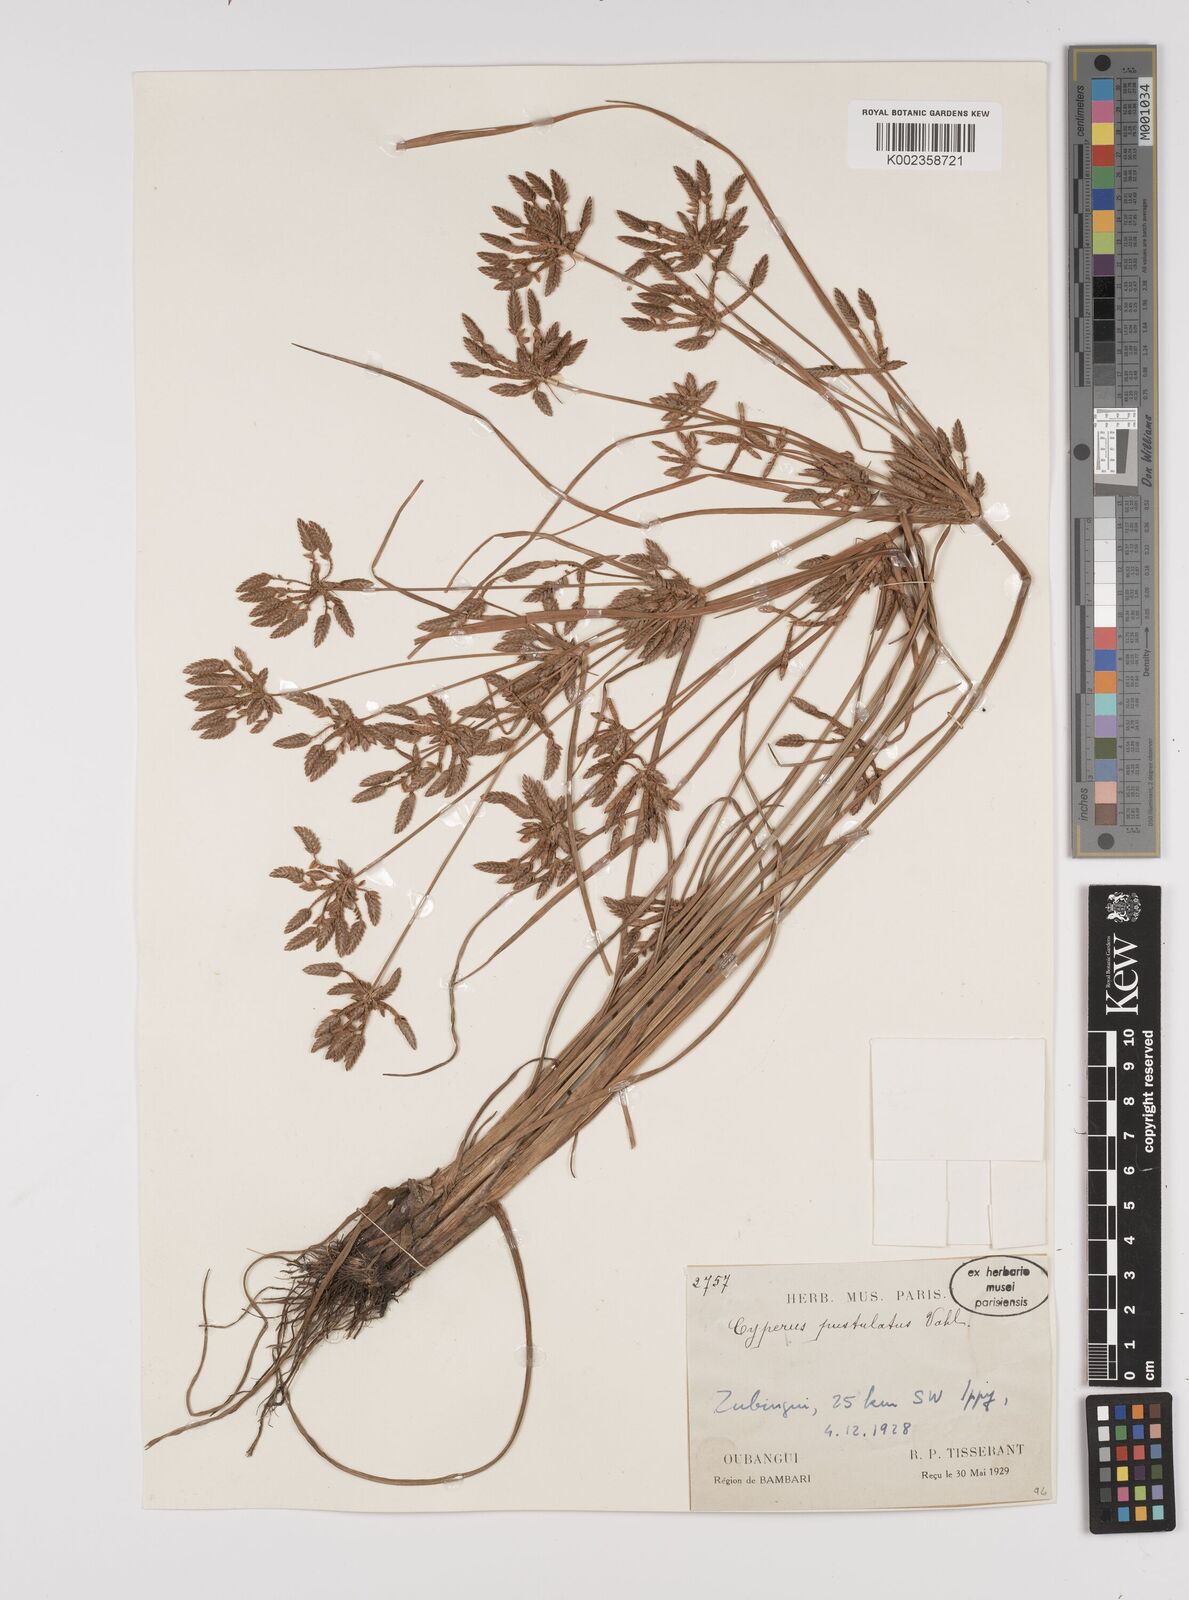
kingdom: Plantae
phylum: Tracheophyta
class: Liliopsida
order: Poales
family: Cyperaceae
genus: Cyperus
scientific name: Cyperus pustulatus
